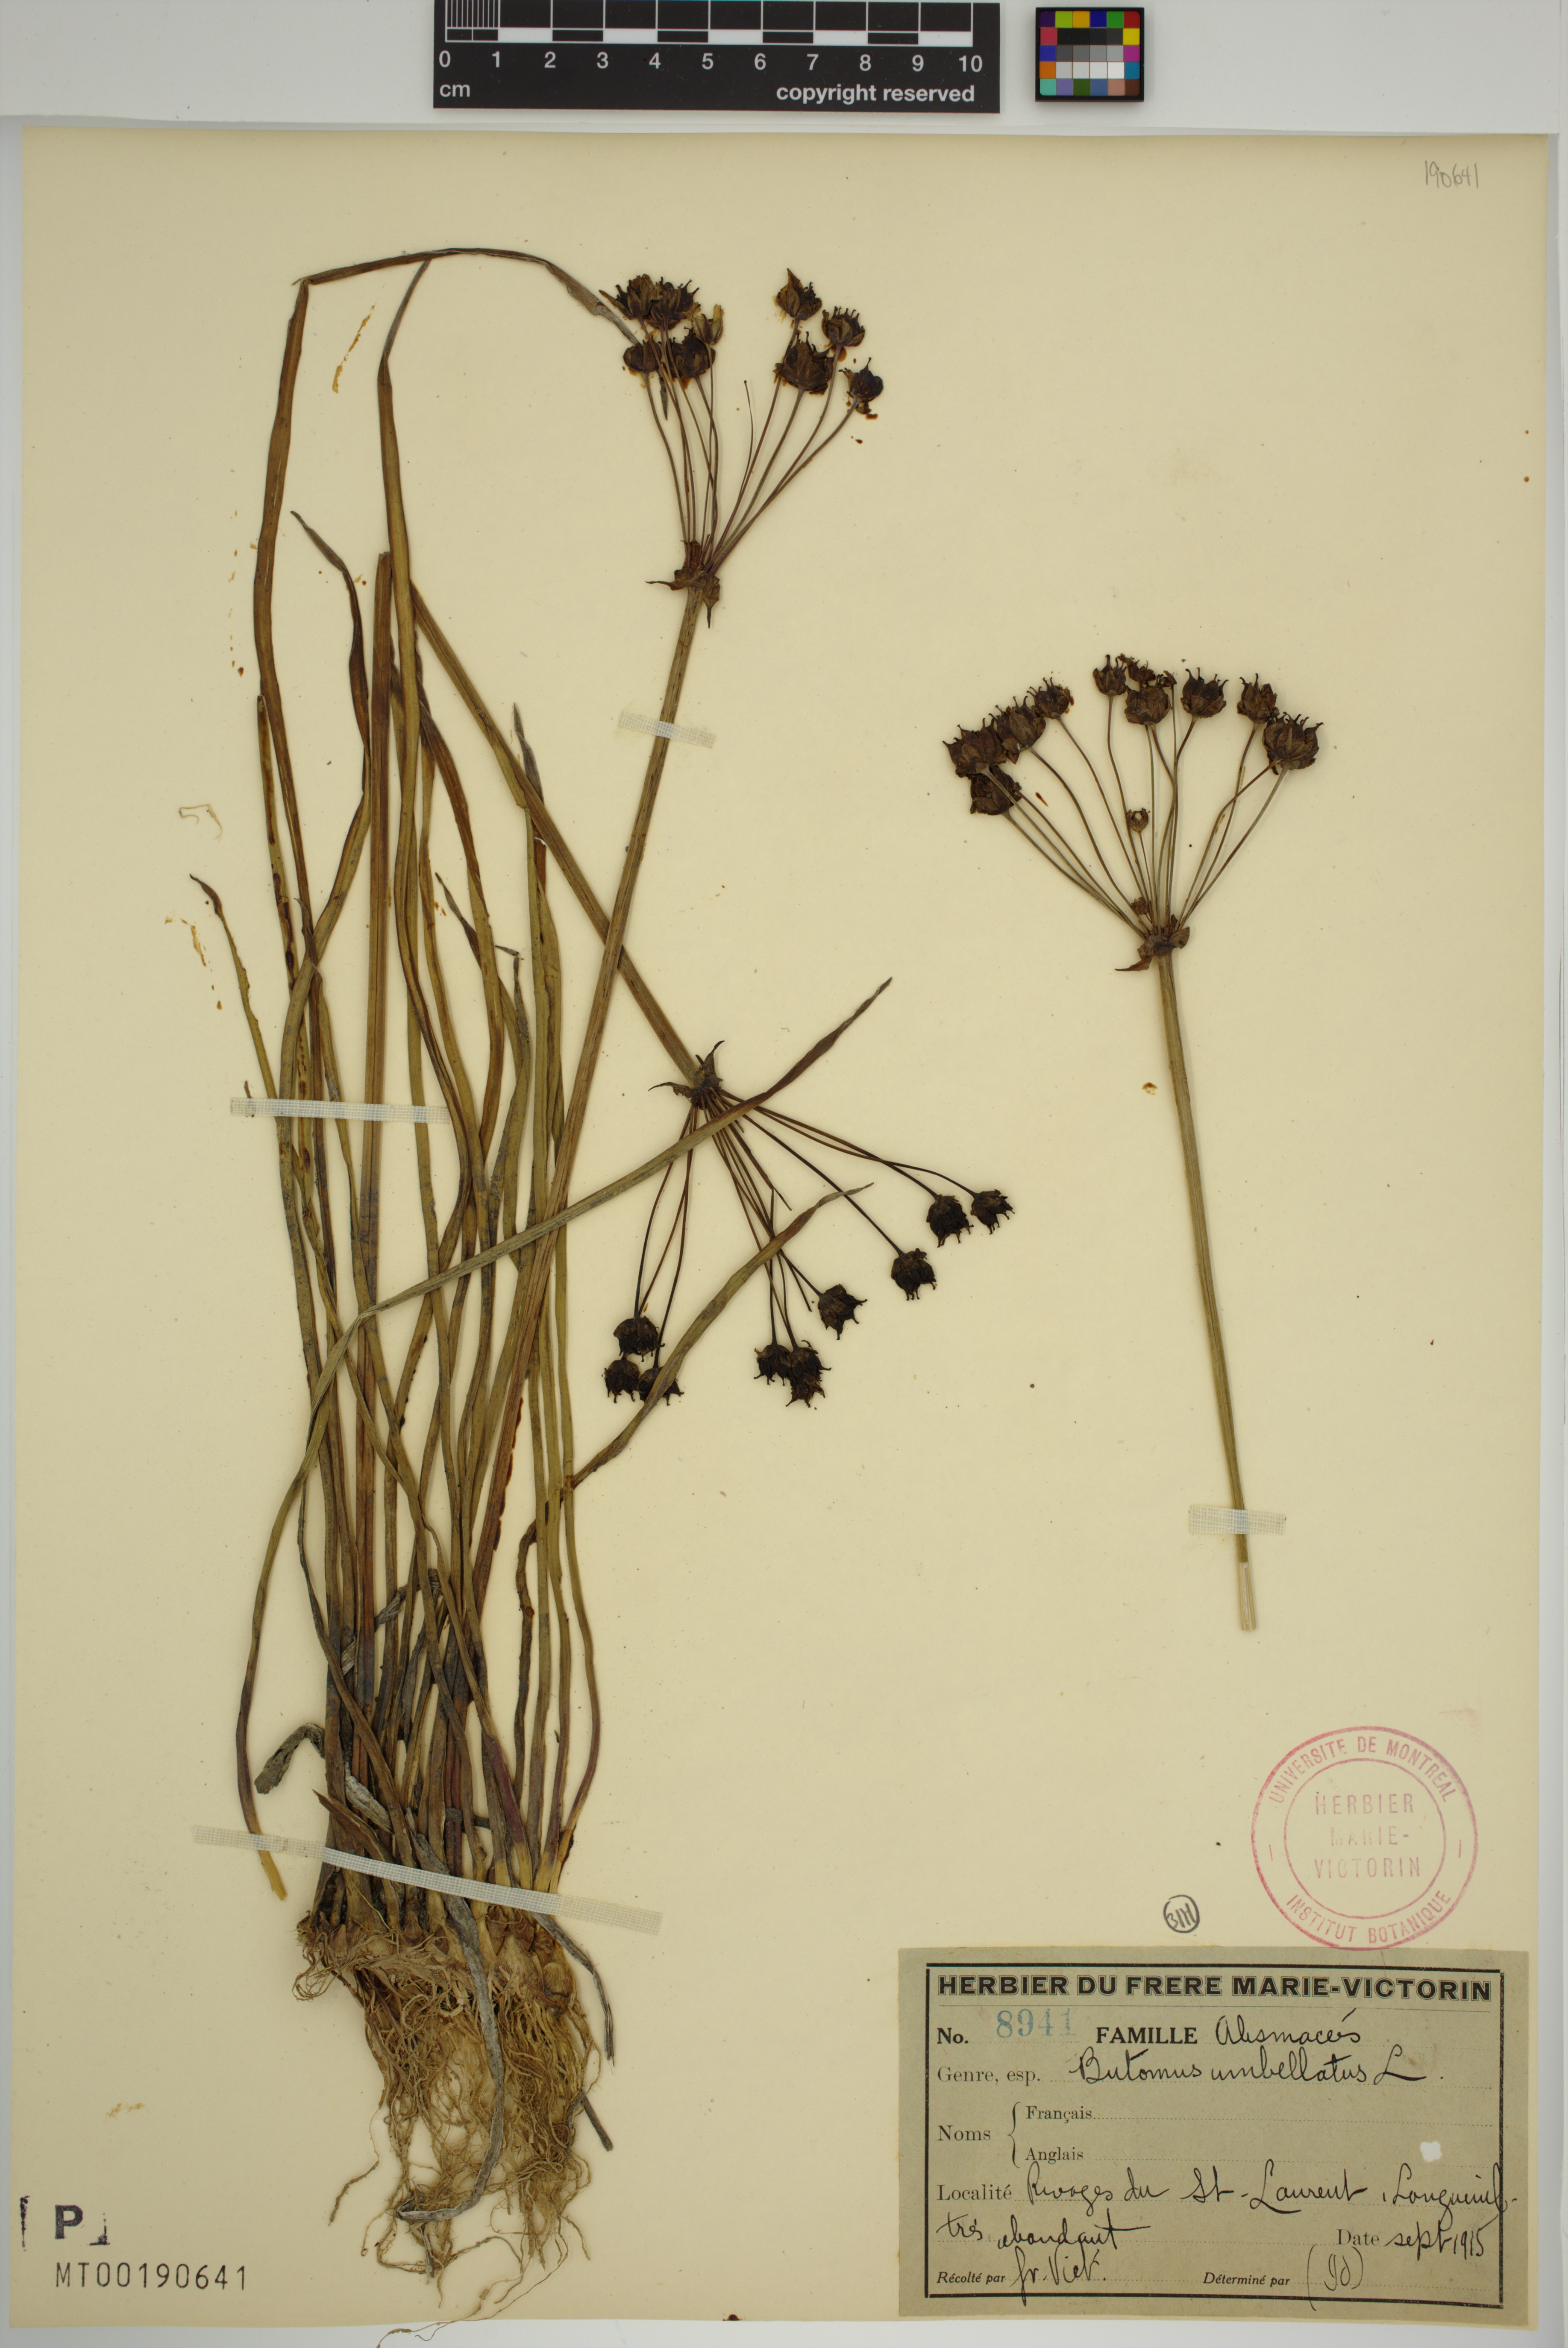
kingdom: Plantae
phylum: Tracheophyta
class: Liliopsida
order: Alismatales
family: Butomaceae
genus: Butomus
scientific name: Butomus umbellatus
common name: Flowering-rush
